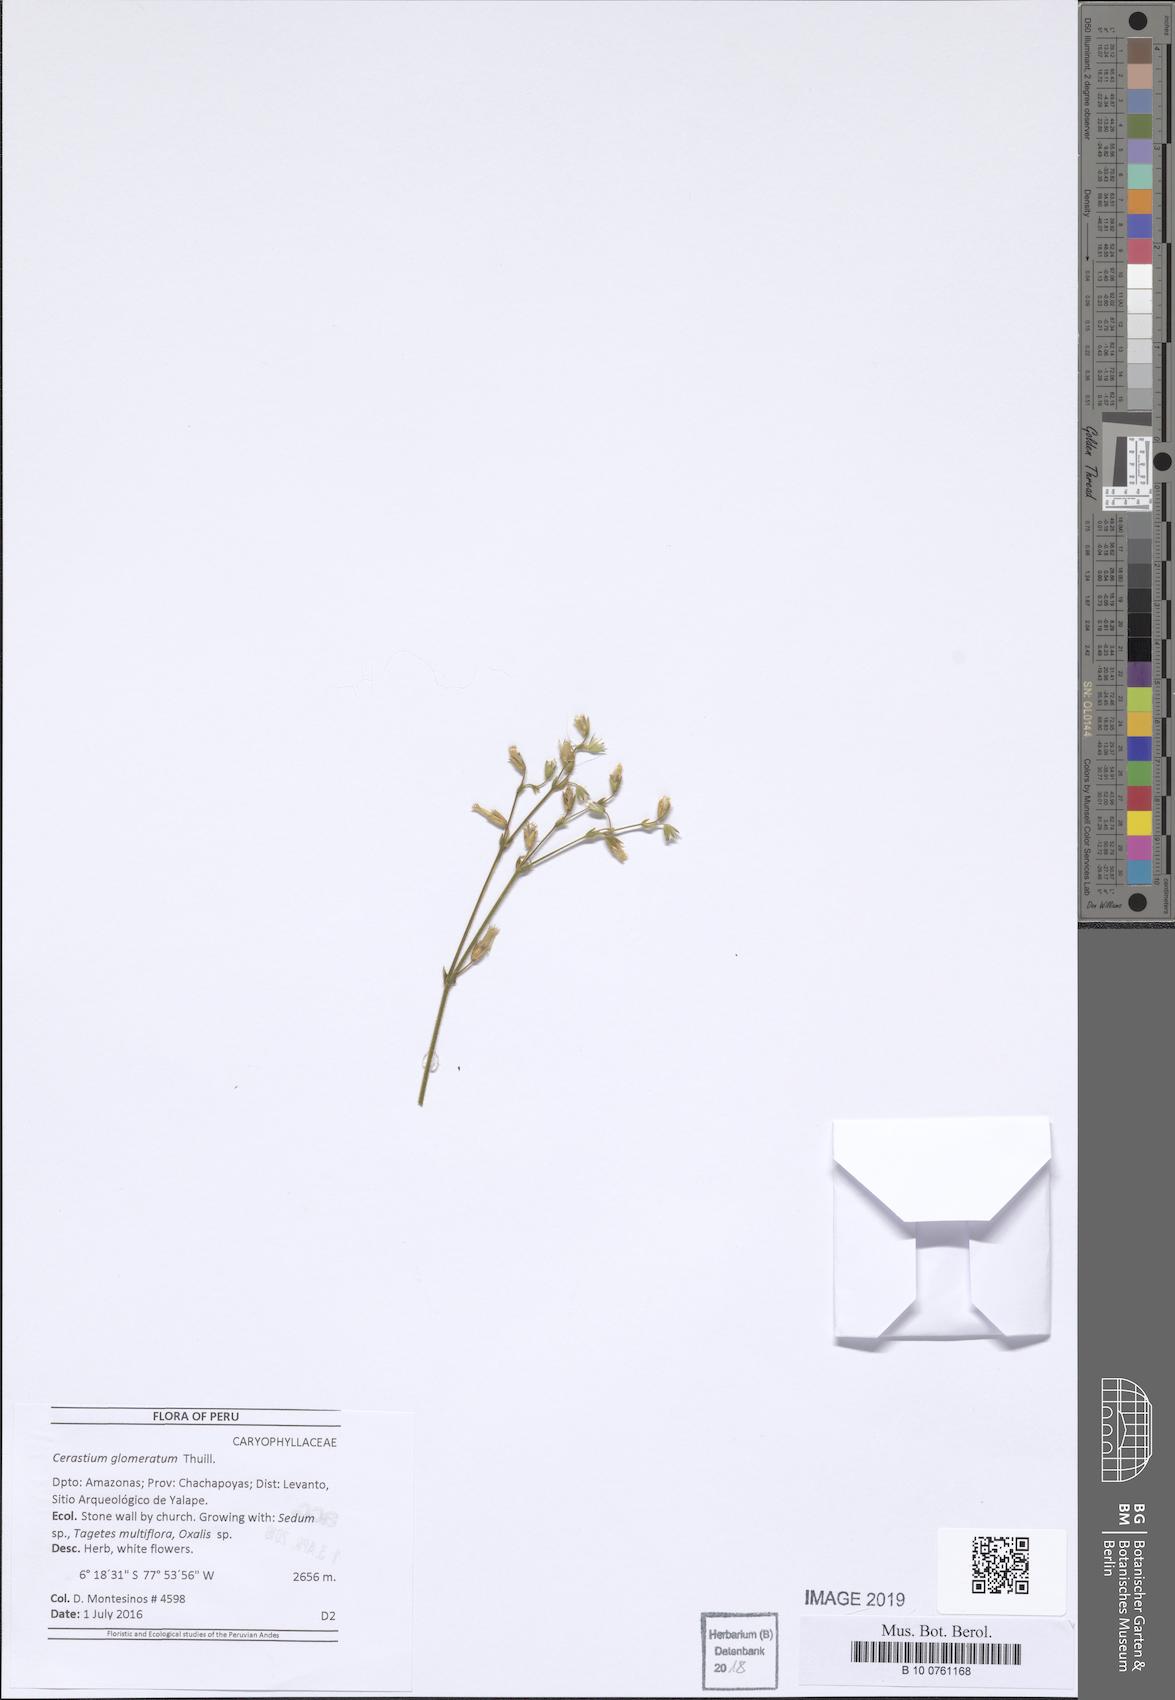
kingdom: Plantae
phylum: Tracheophyta
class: Magnoliopsida
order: Caryophyllales
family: Caryophyllaceae
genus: Cerastium
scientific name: Cerastium glomeratum
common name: Sticky chickweed
